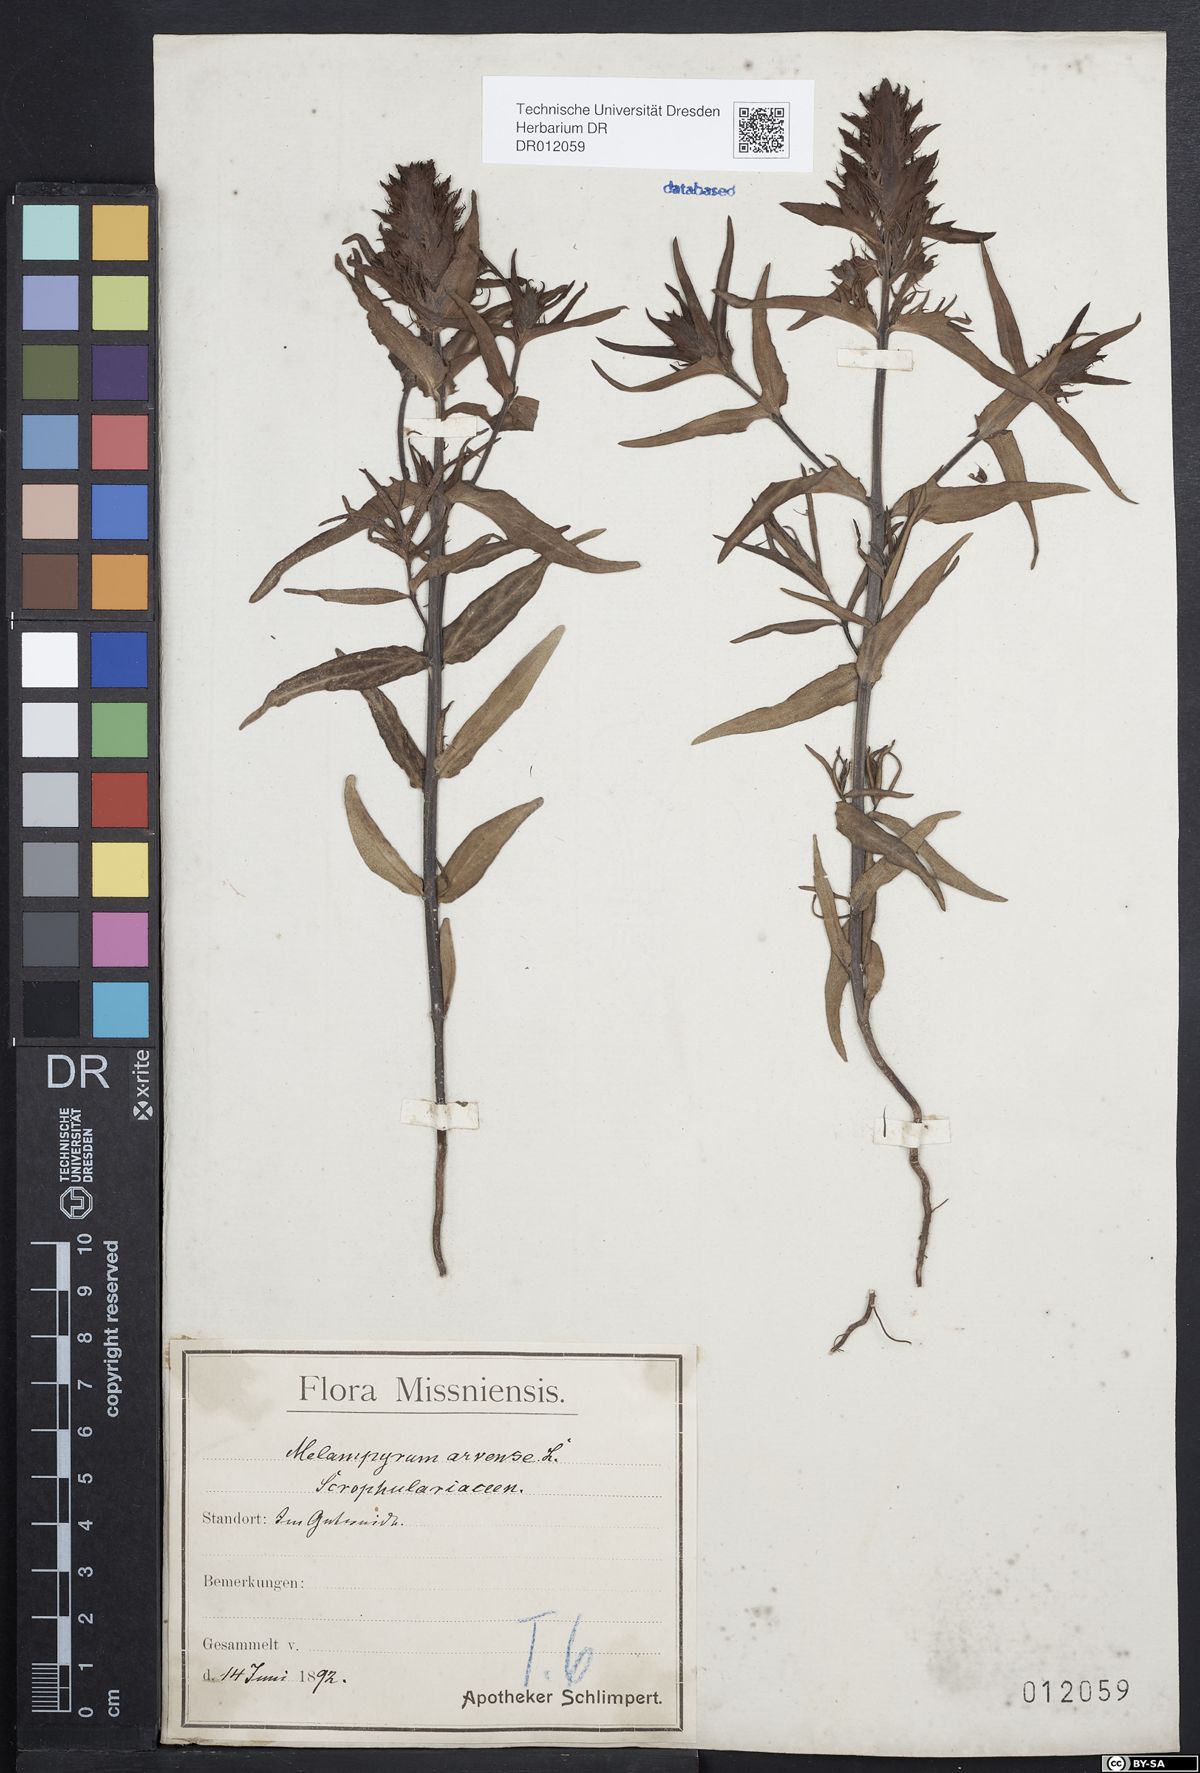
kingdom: Plantae
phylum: Tracheophyta
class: Magnoliopsida
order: Lamiales
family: Orobanchaceae
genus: Melampyrum
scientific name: Melampyrum arvense
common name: Field cow-wheat
